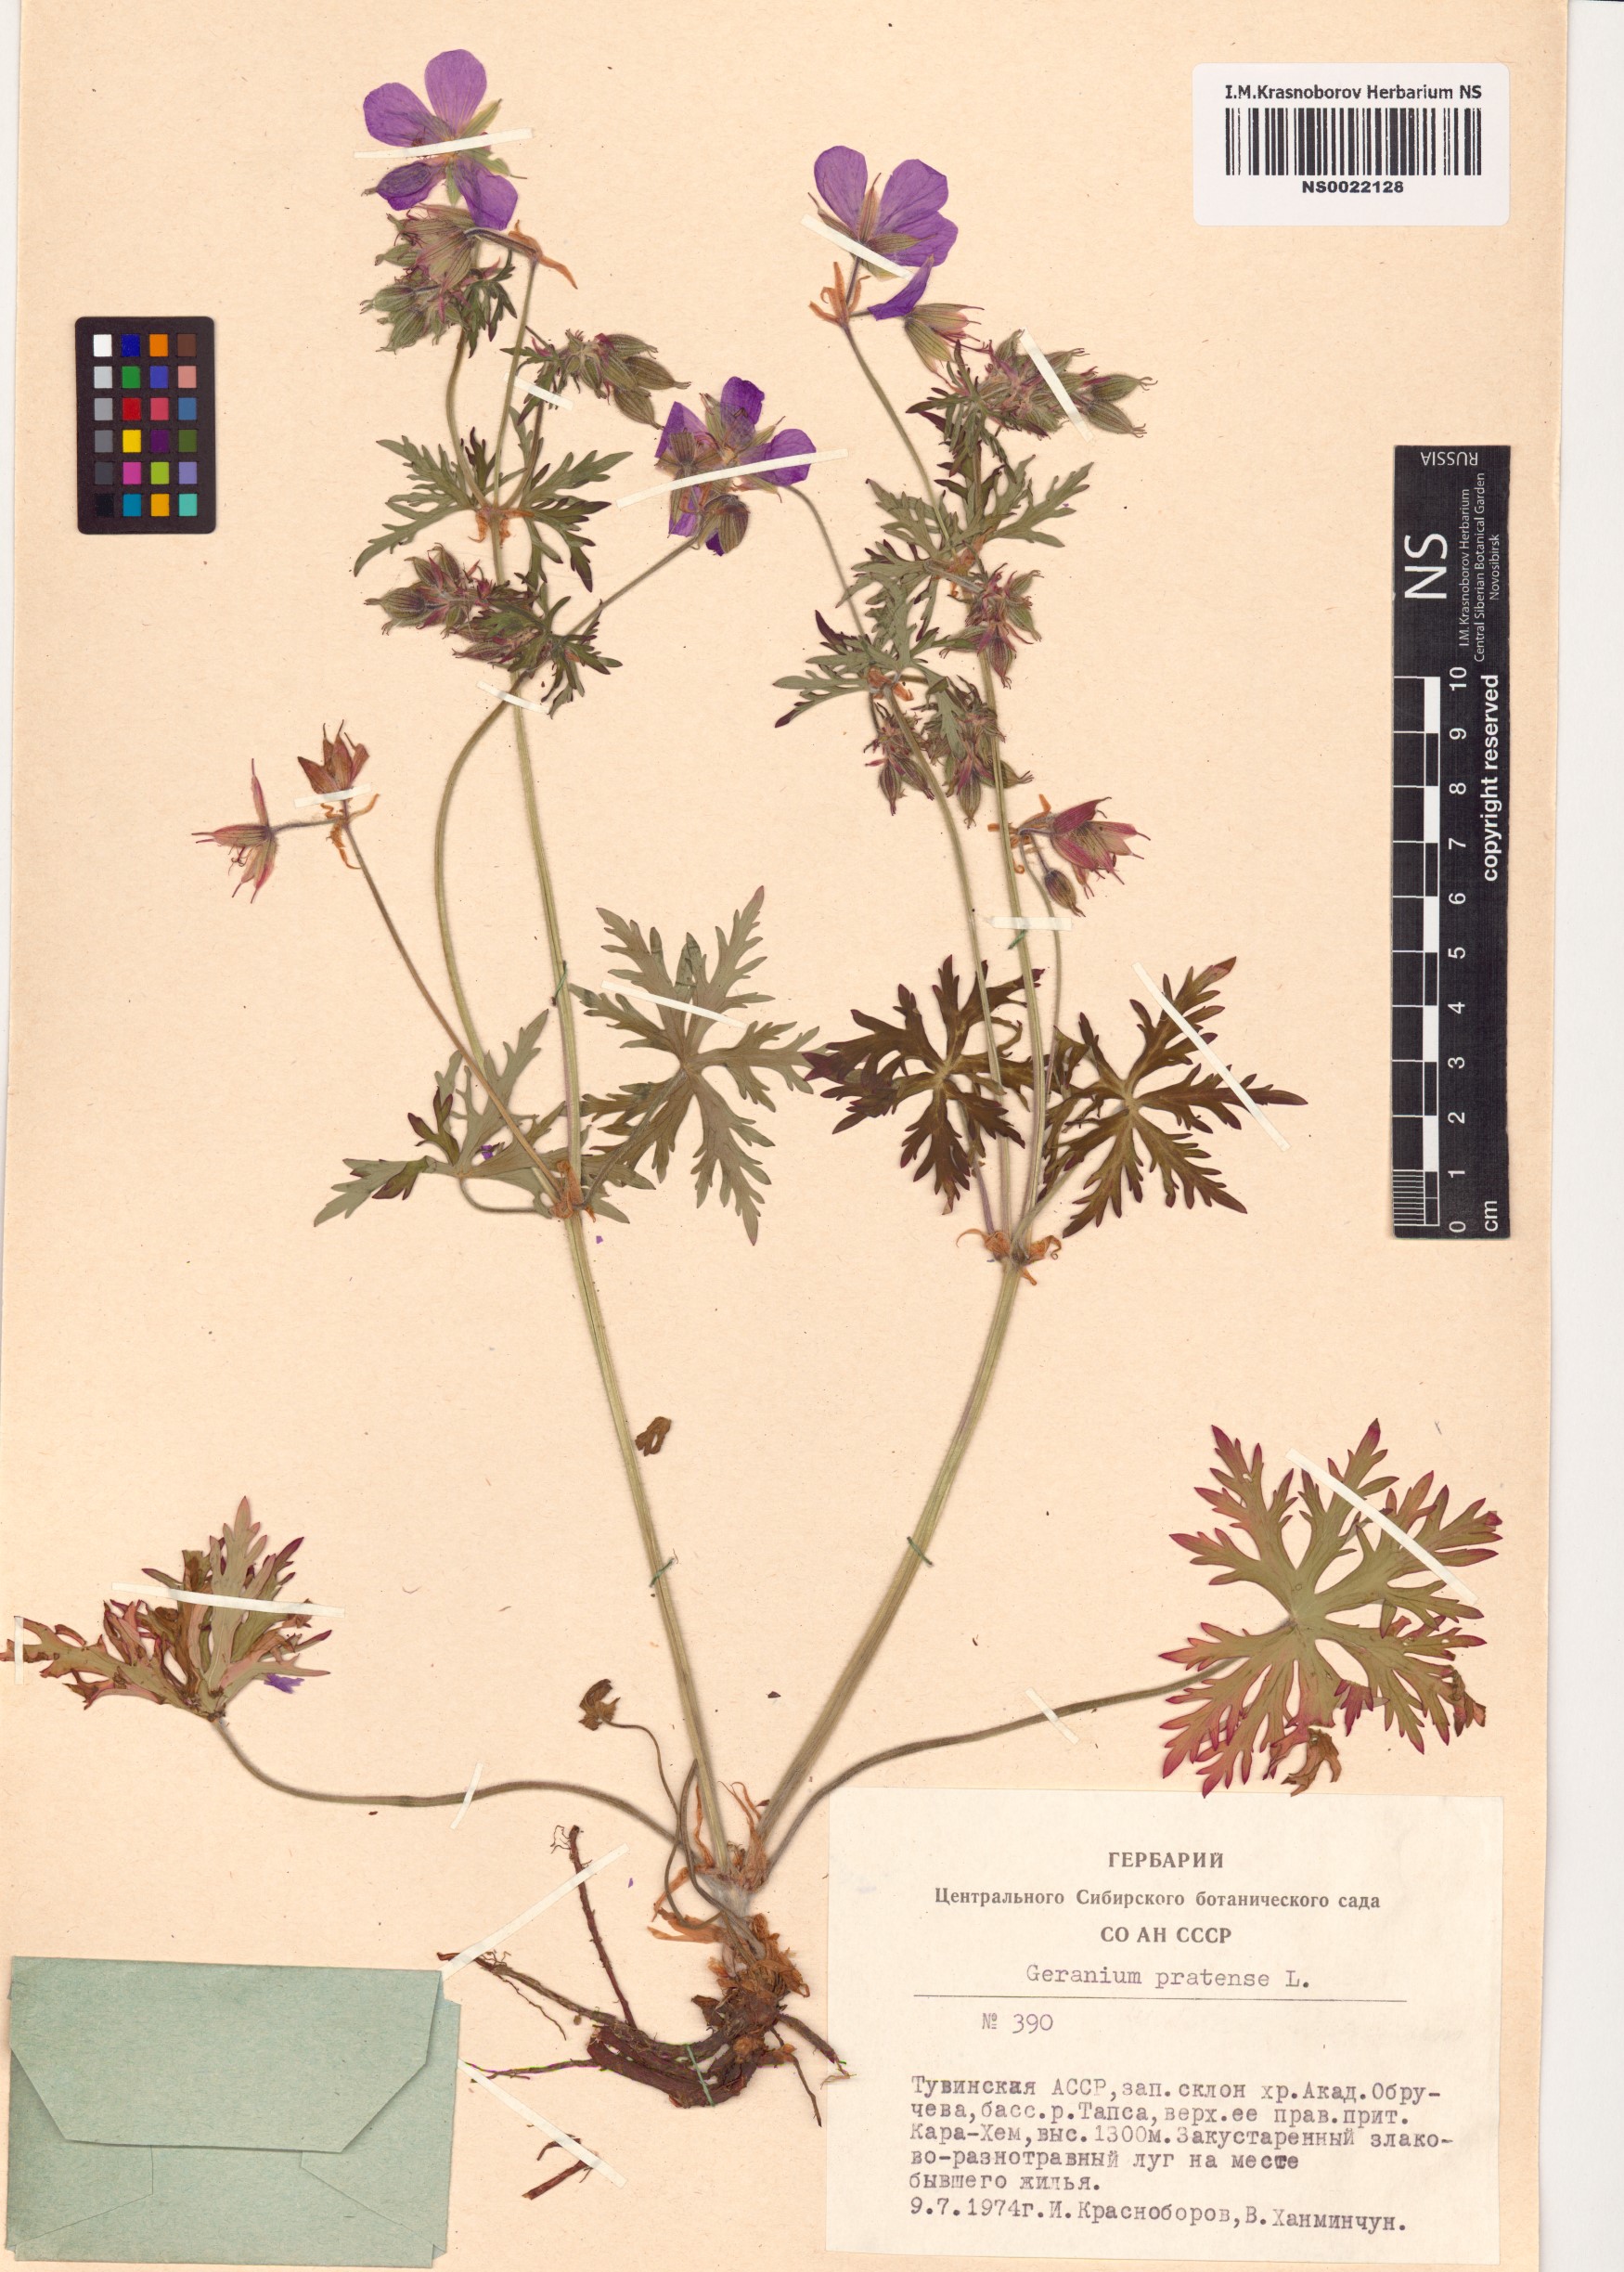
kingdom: Plantae
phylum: Tracheophyta
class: Magnoliopsida
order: Geraniales
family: Geraniaceae
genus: Geranium
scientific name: Geranium pratense
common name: Meadow crane's-bill
